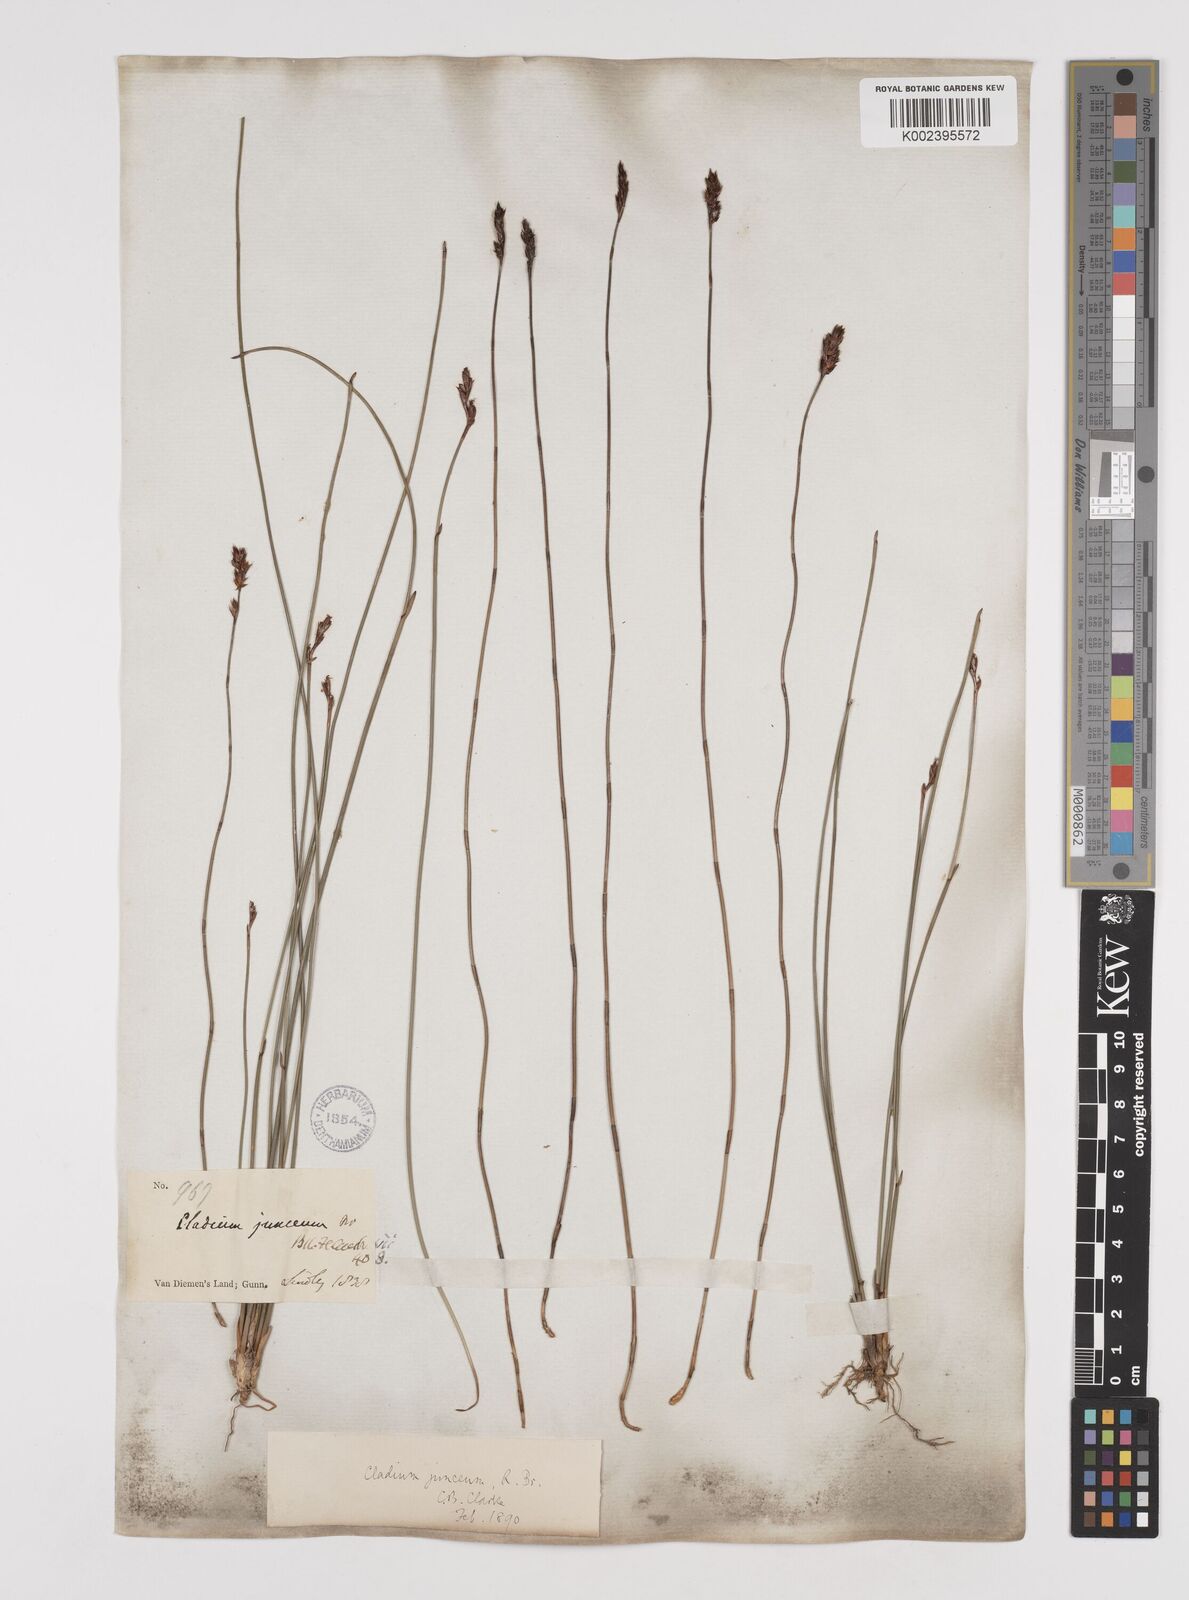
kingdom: Plantae
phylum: Tracheophyta
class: Liliopsida
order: Poales
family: Cyperaceae
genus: Machaerina
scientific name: Machaerina juncea
